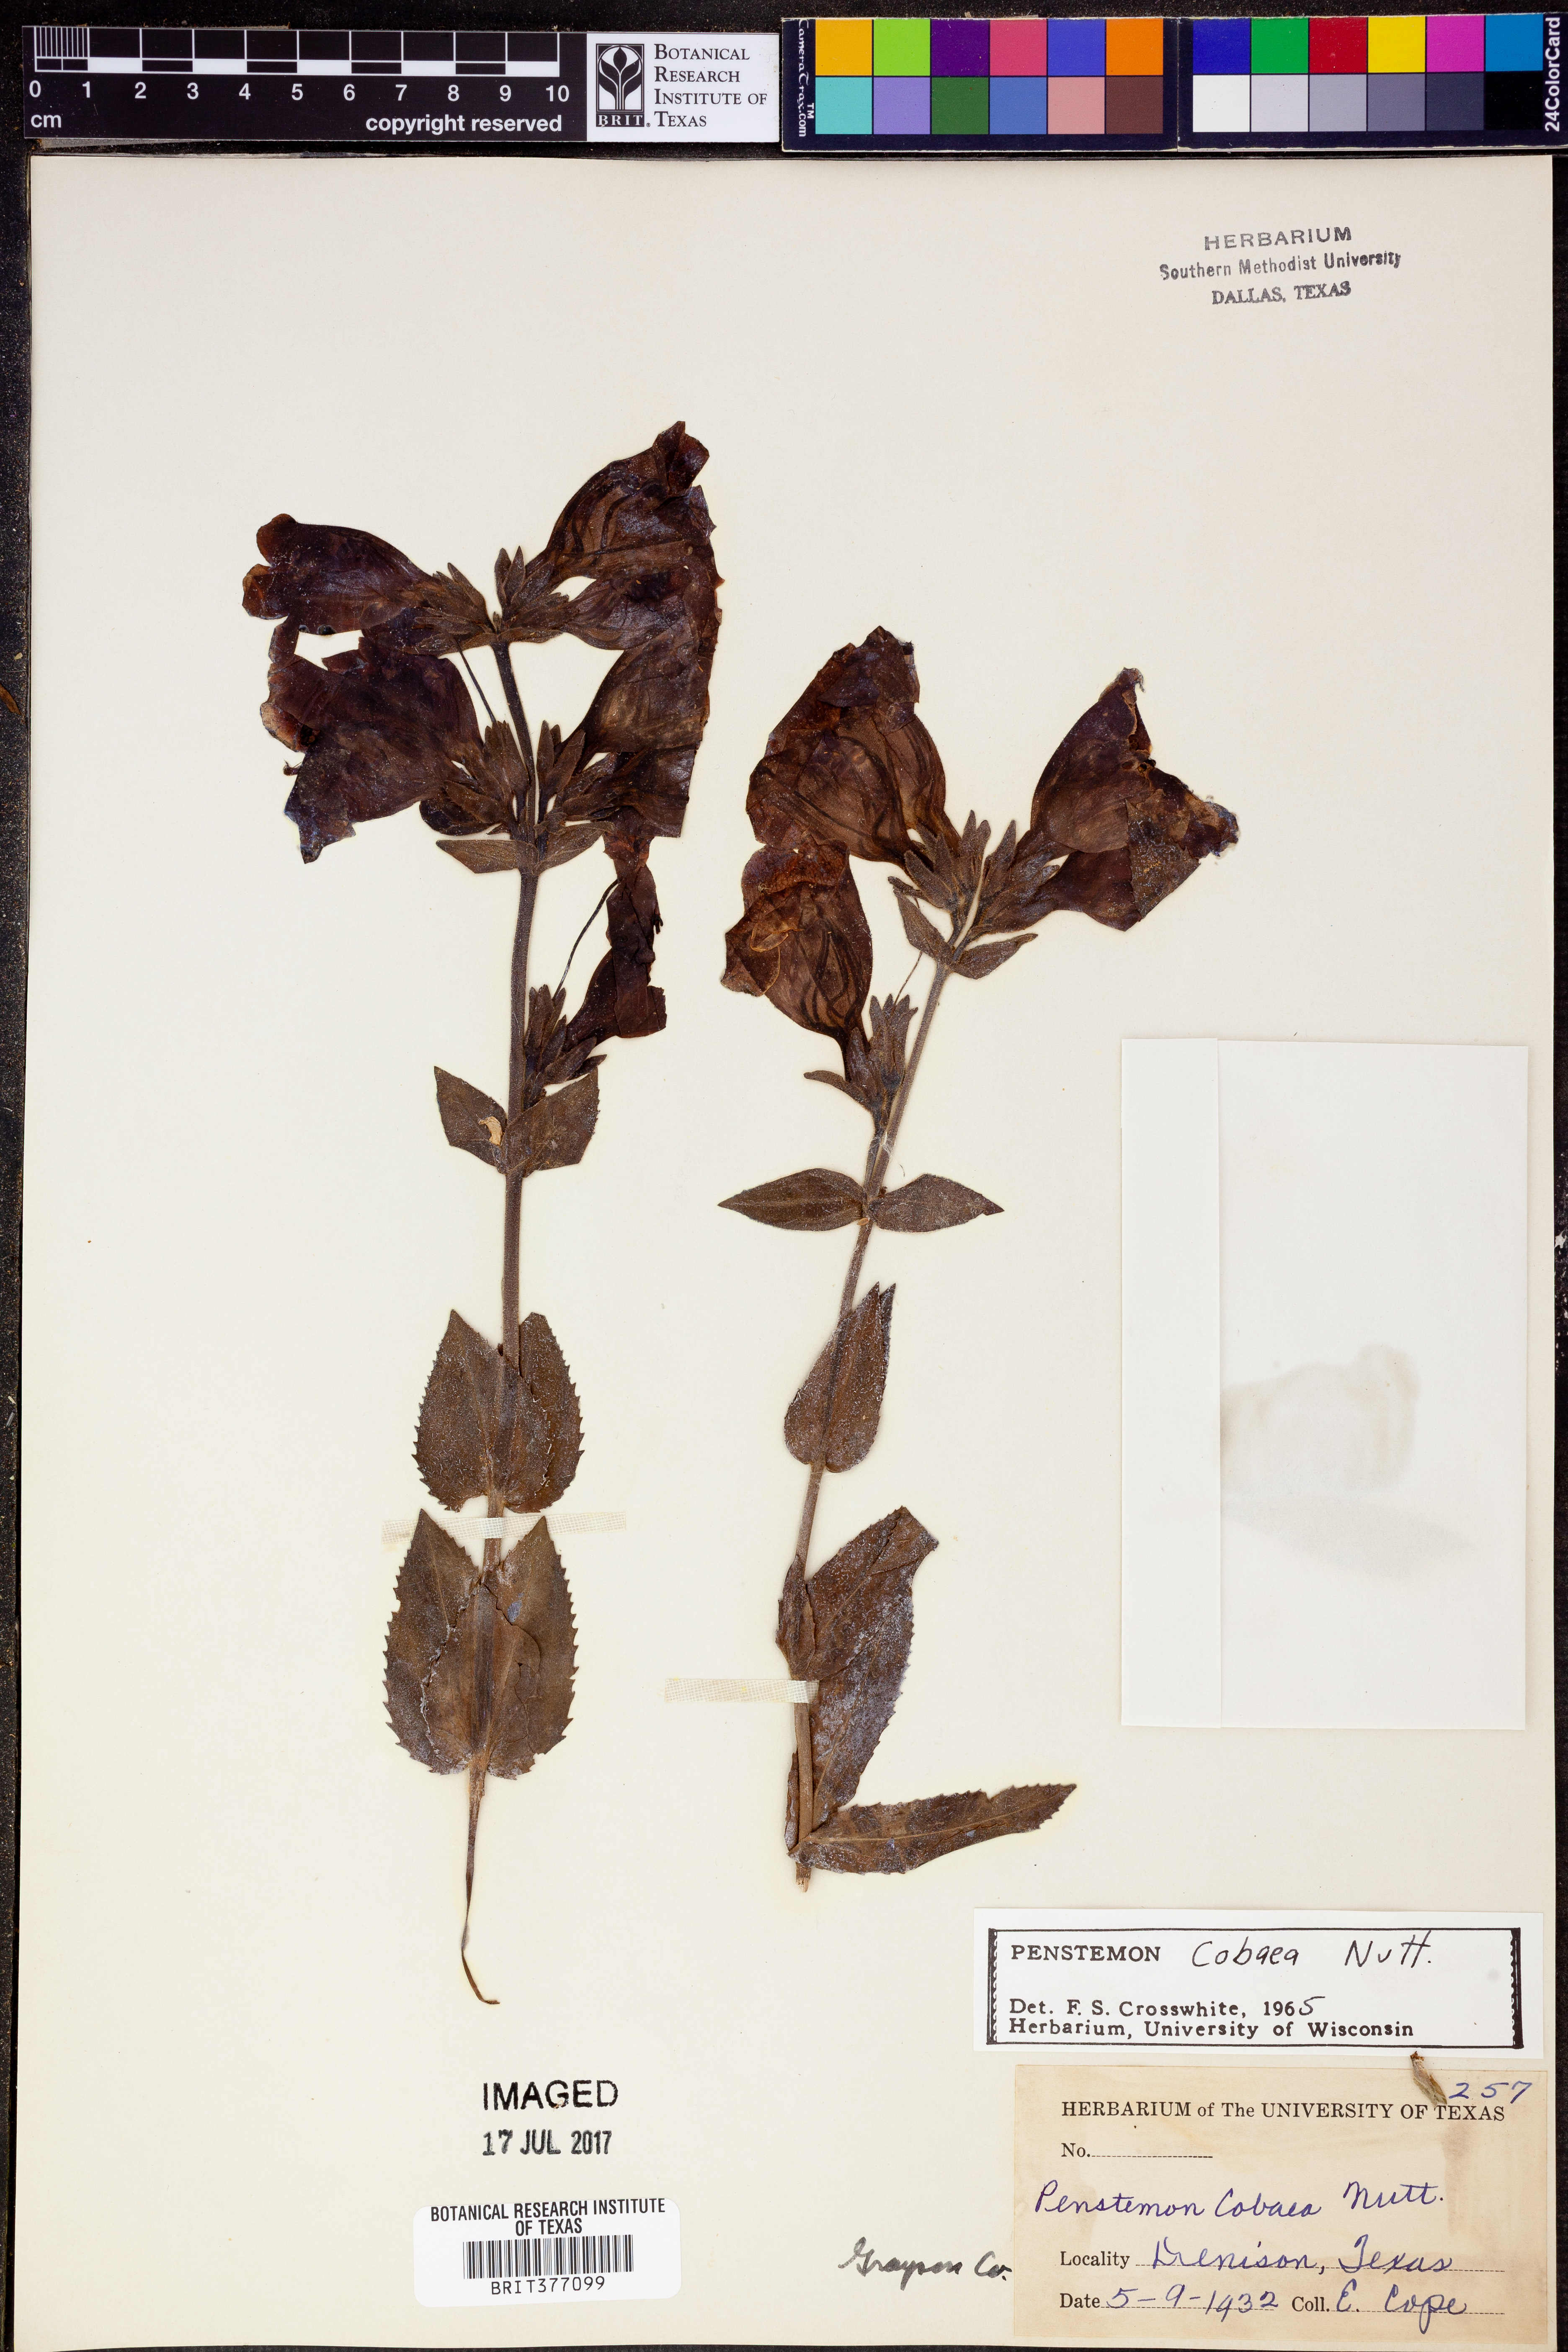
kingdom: Plantae
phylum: Tracheophyta
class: Magnoliopsida
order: Lamiales
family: Plantaginaceae
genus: Penstemon
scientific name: Penstemon cobaea
